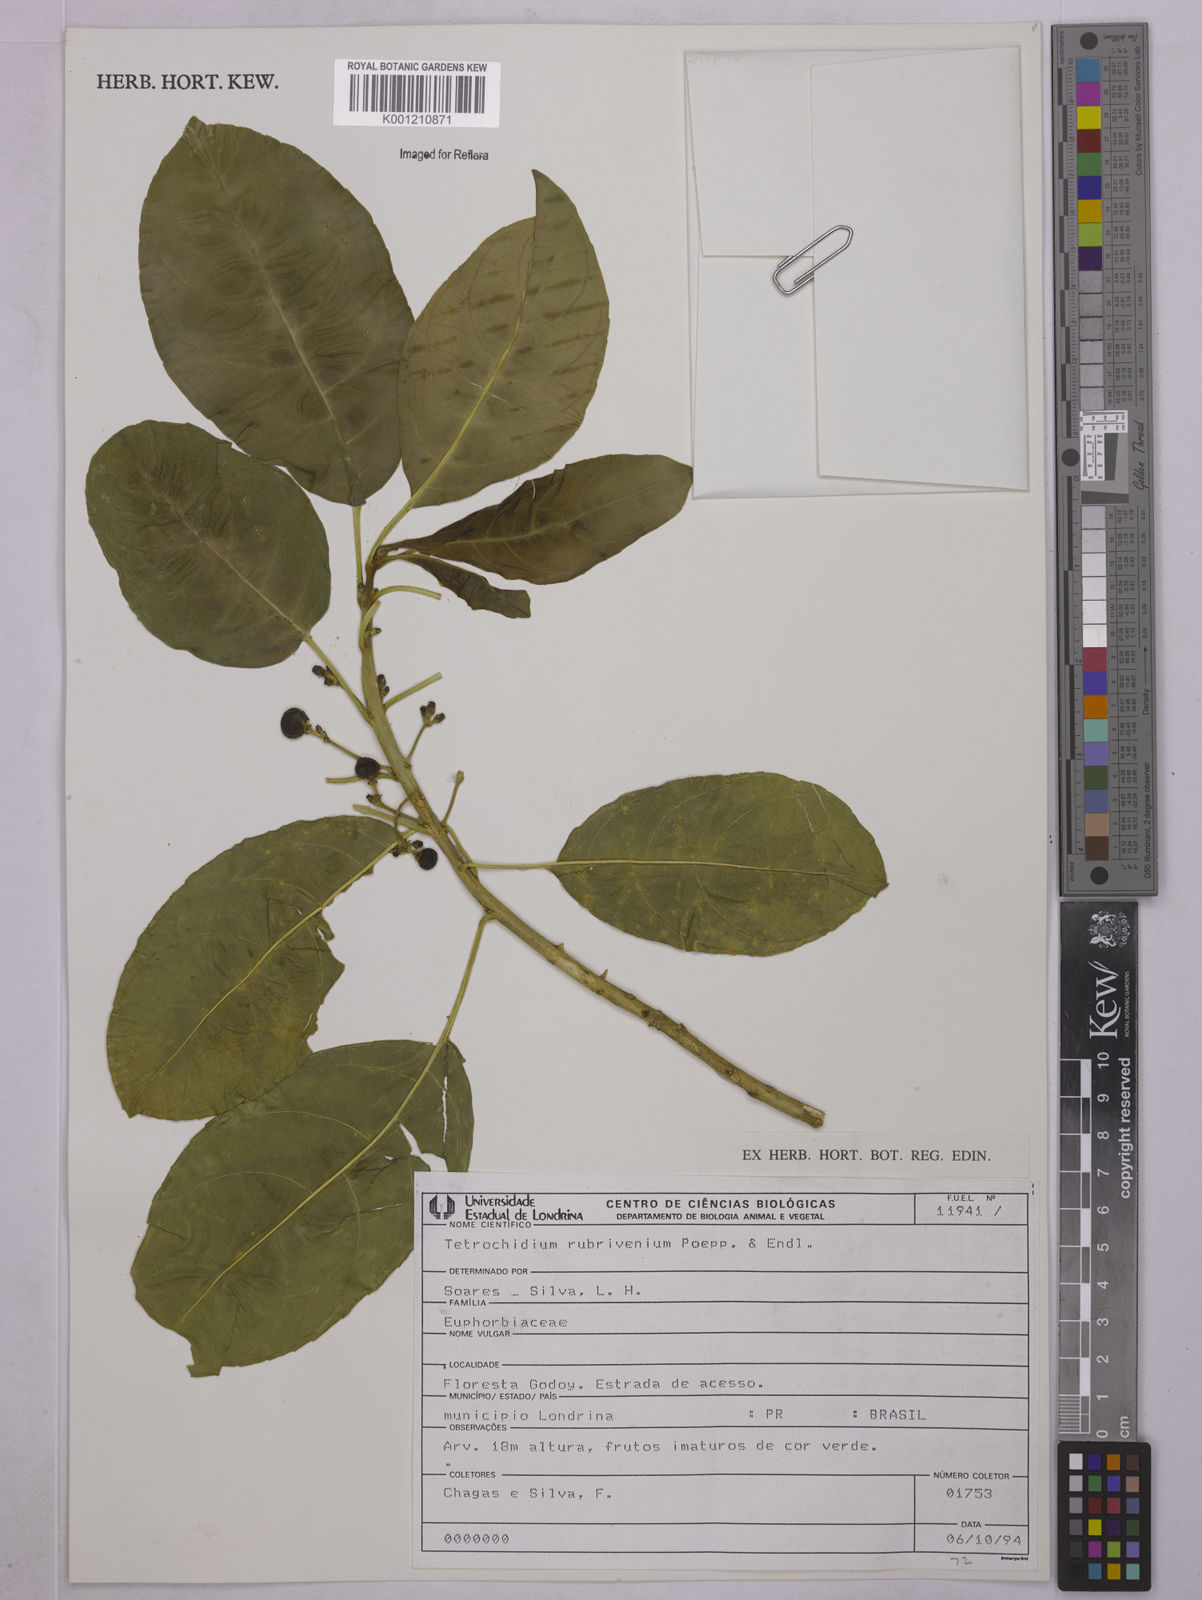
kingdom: Plantae
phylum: Tracheophyta
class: Magnoliopsida
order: Malpighiales
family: Euphorbiaceae
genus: Tetrorchidium
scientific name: Tetrorchidium rubrivenium
